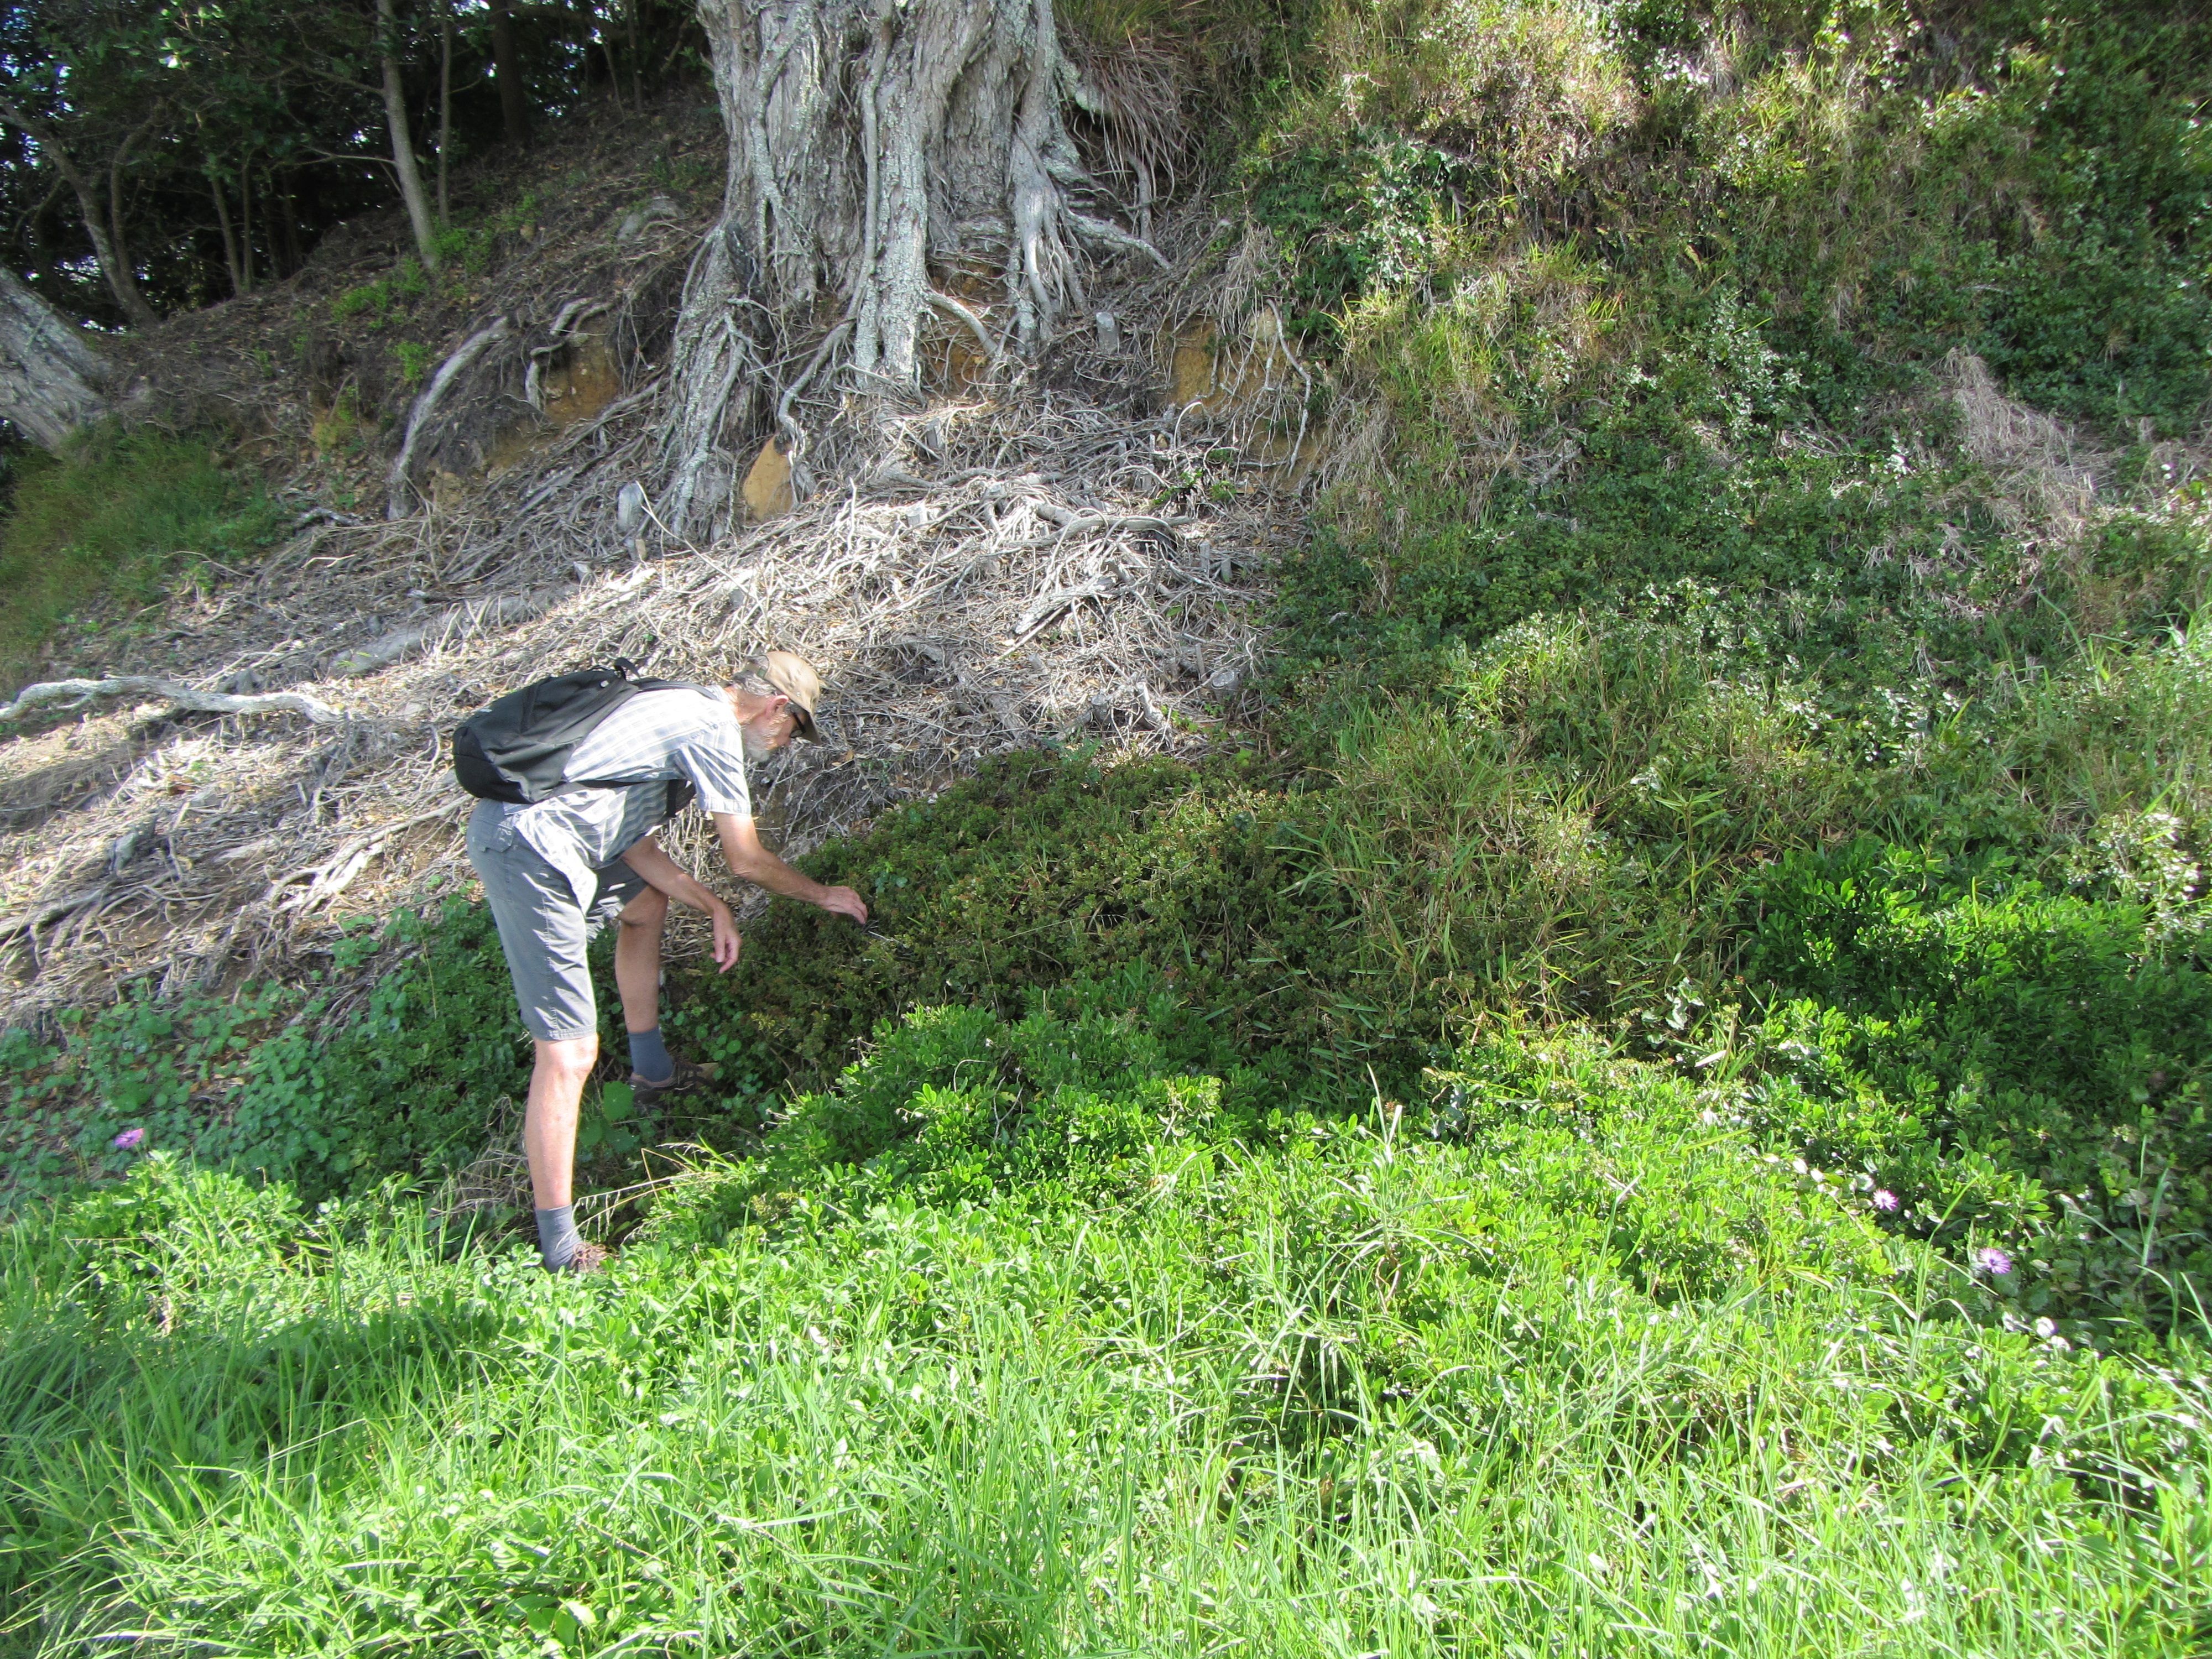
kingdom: Plantae
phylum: Tracheophyta
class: Magnoliopsida
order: Saxifragales
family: Crassulaceae
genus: Crassula
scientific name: Crassula sarmentosa
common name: Jade-tree
